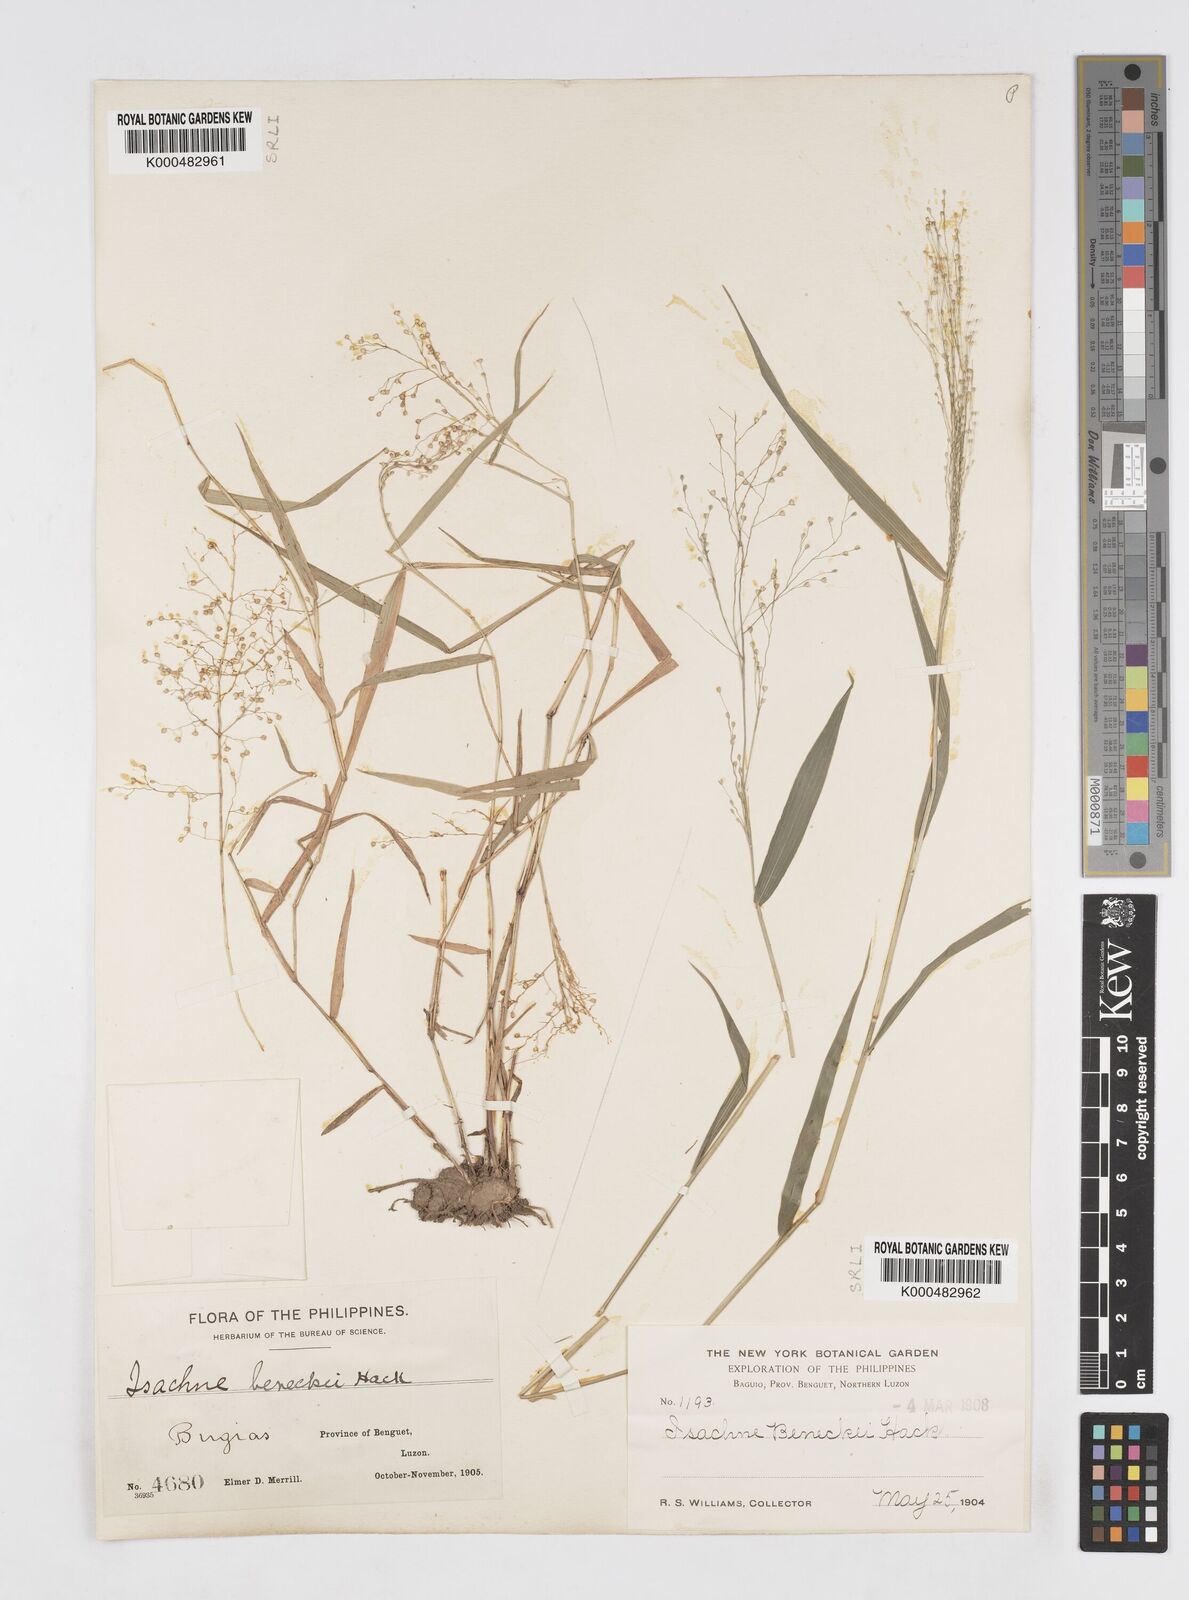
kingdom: Plantae
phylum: Tracheophyta
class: Liliopsida
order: Poales
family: Poaceae
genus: Isachne
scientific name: Isachne clarkei
